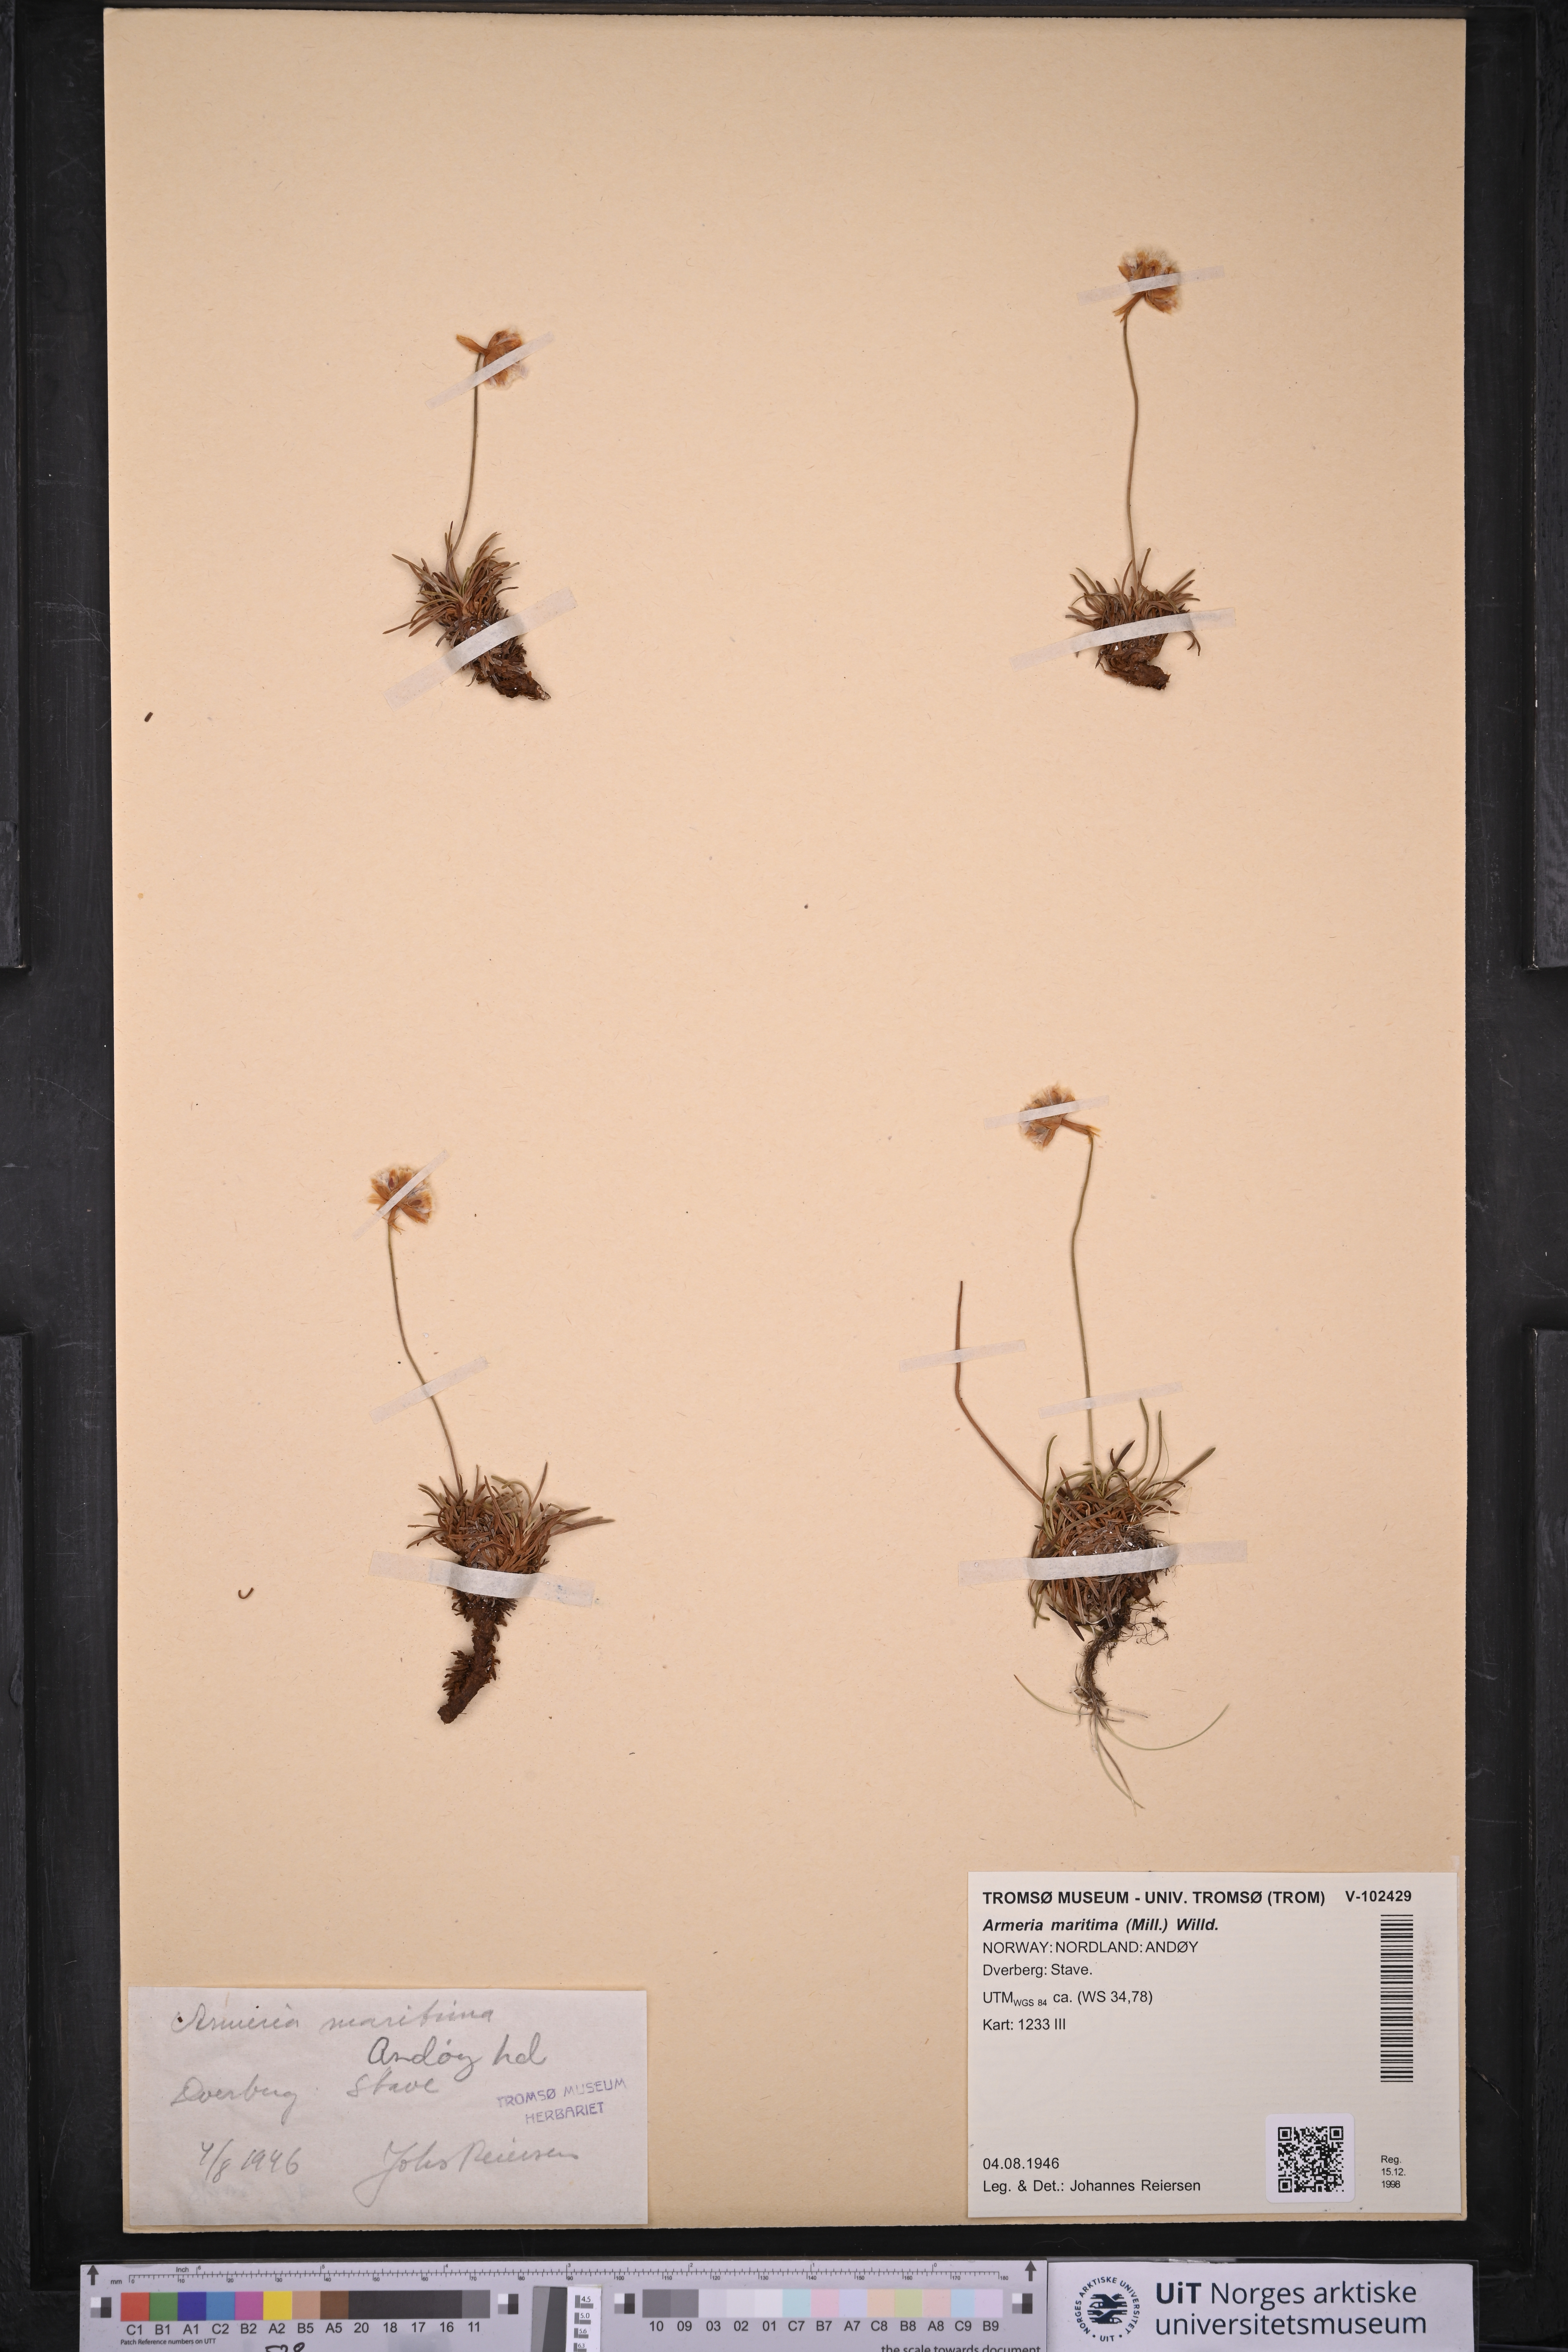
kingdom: Plantae
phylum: Tracheophyta
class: Magnoliopsida
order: Caryophyllales
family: Plumbaginaceae
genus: Armeria
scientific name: Armeria maritima
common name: Thrift
